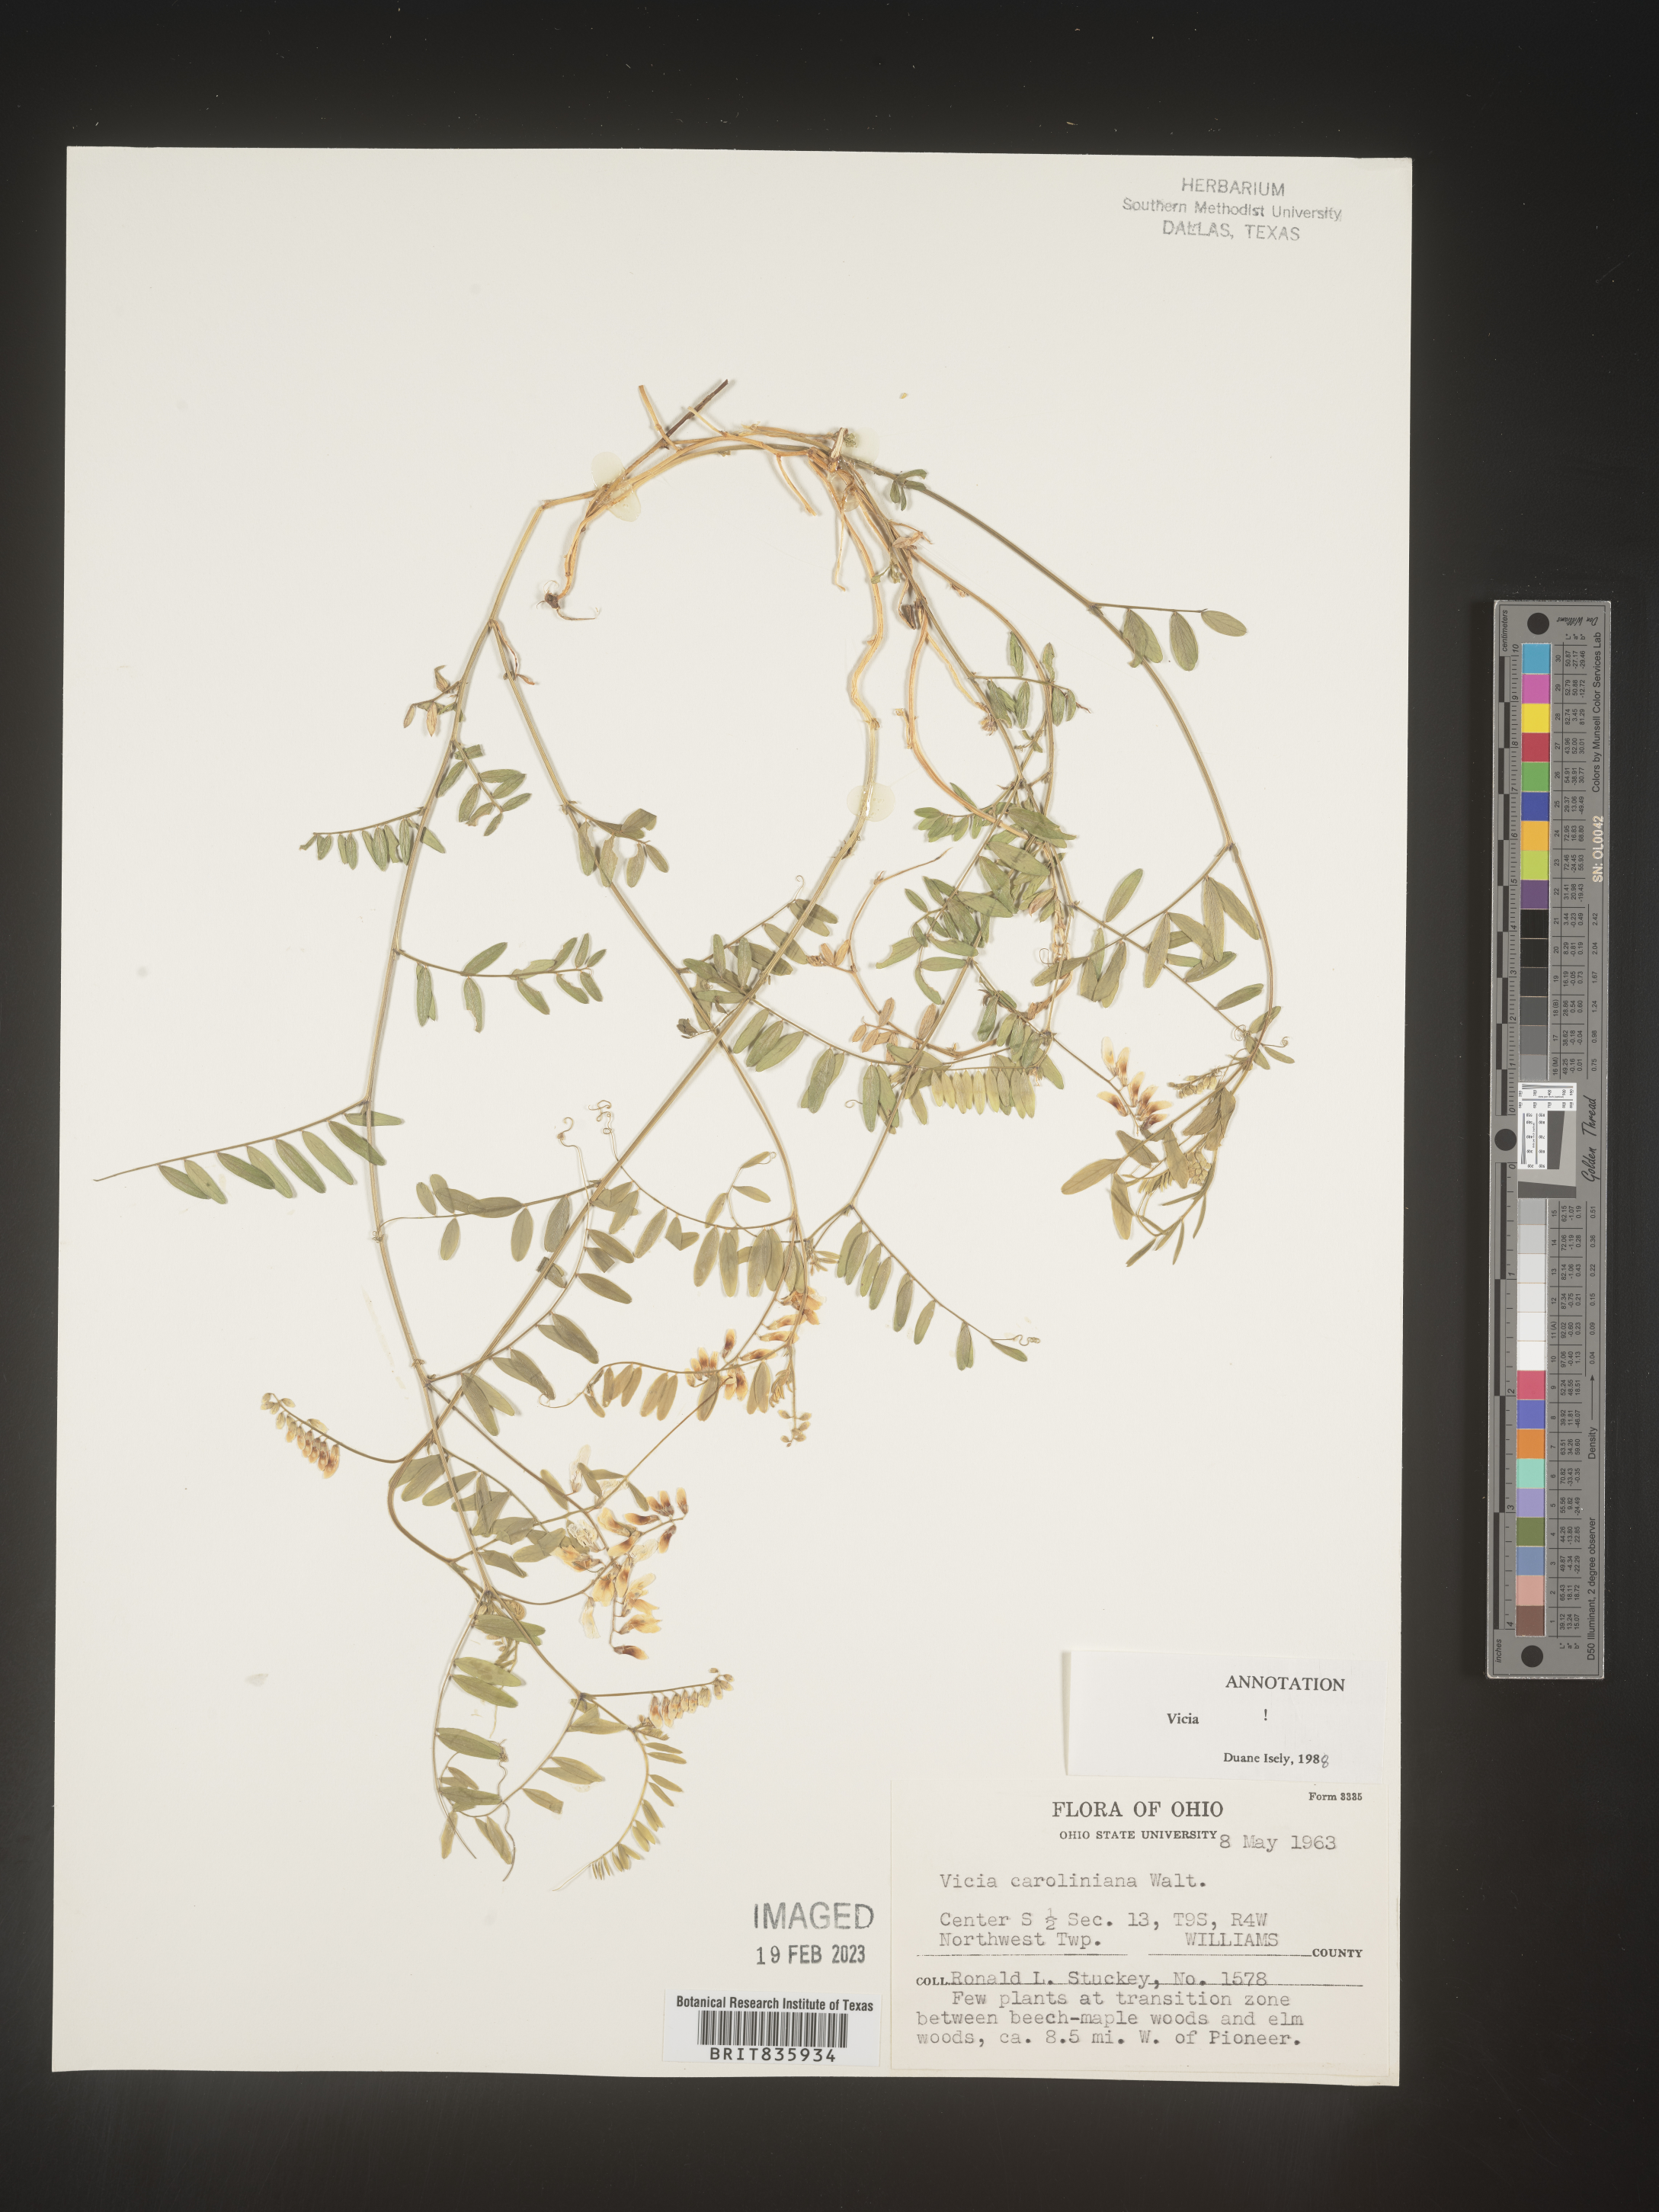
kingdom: Plantae
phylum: Tracheophyta
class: Magnoliopsida
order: Fabales
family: Fabaceae
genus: Vicia
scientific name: Vicia caroliniana
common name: Carolina vetch
